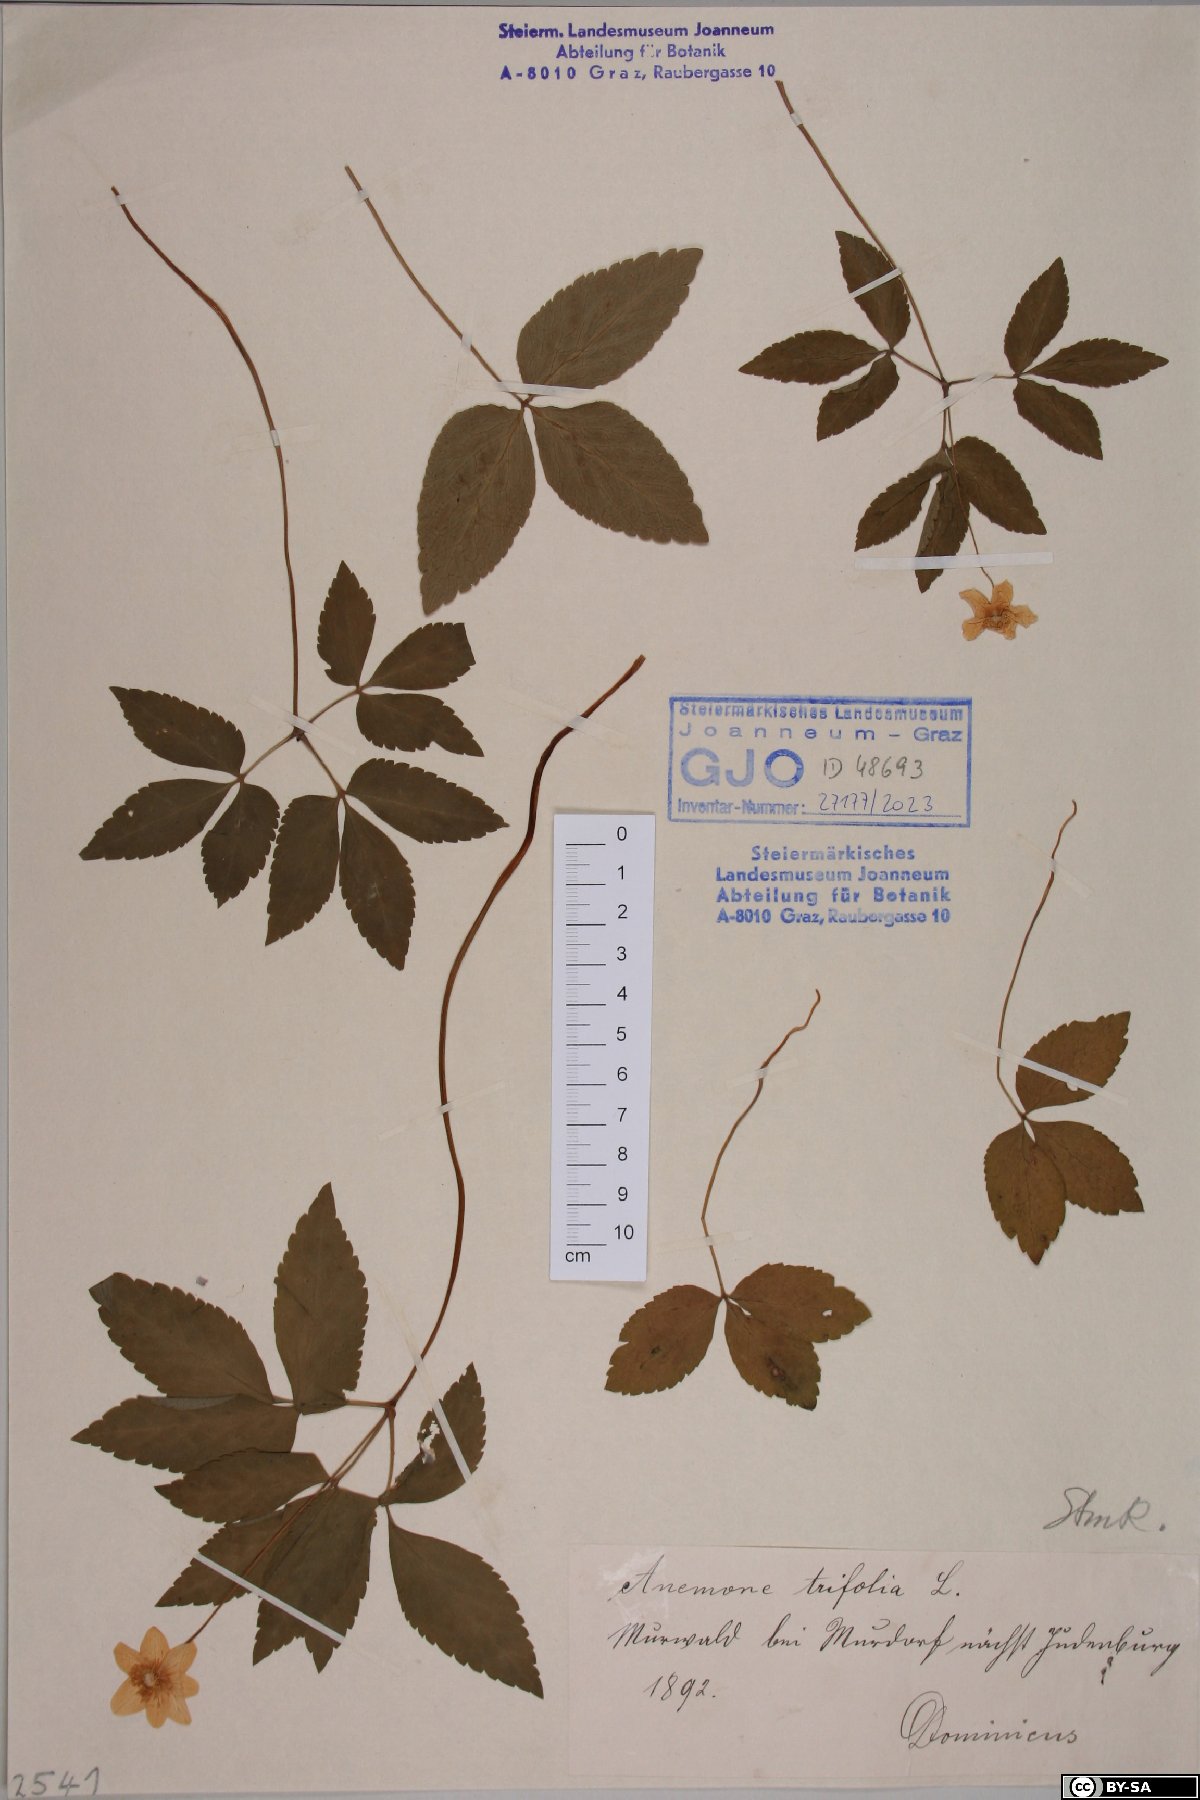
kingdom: Plantae
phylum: Tracheophyta
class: Magnoliopsida
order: Ranunculales
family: Ranunculaceae
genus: Anemone
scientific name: Anemone trifolia
